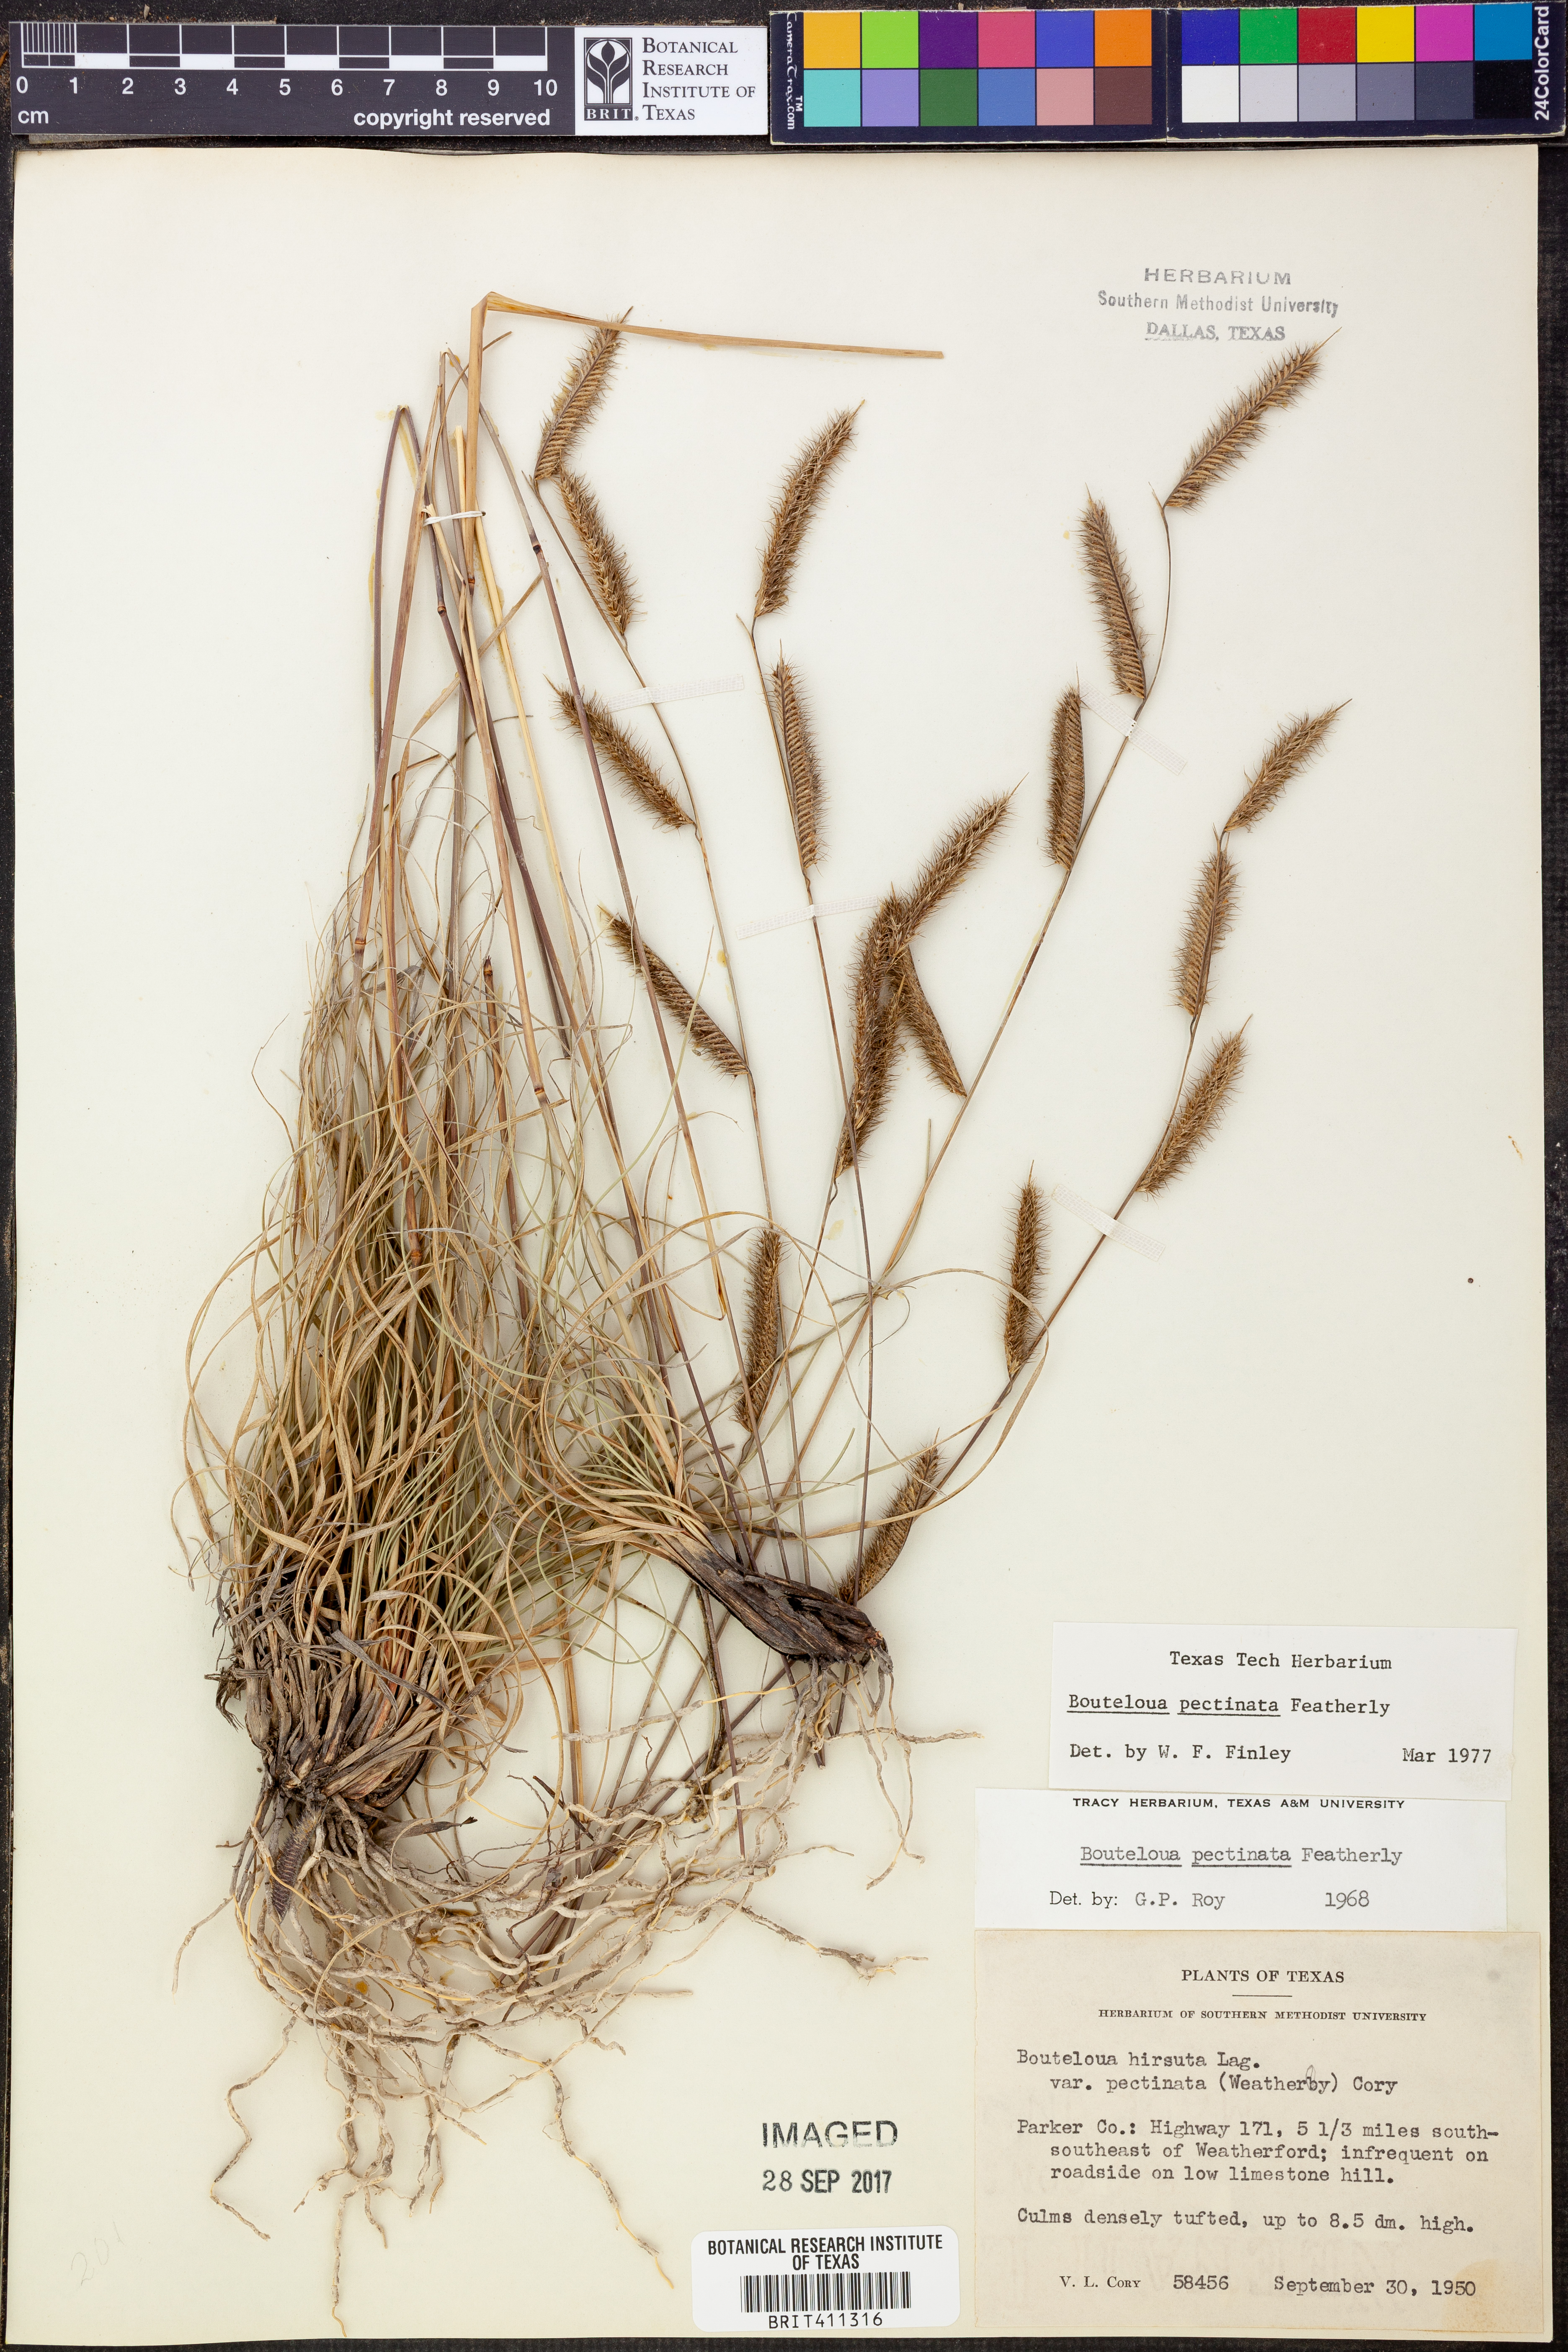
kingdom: Plantae
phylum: Tracheophyta
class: Liliopsida
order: Poales
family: Poaceae
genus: Bouteloua
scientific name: Bouteloua pectinata
